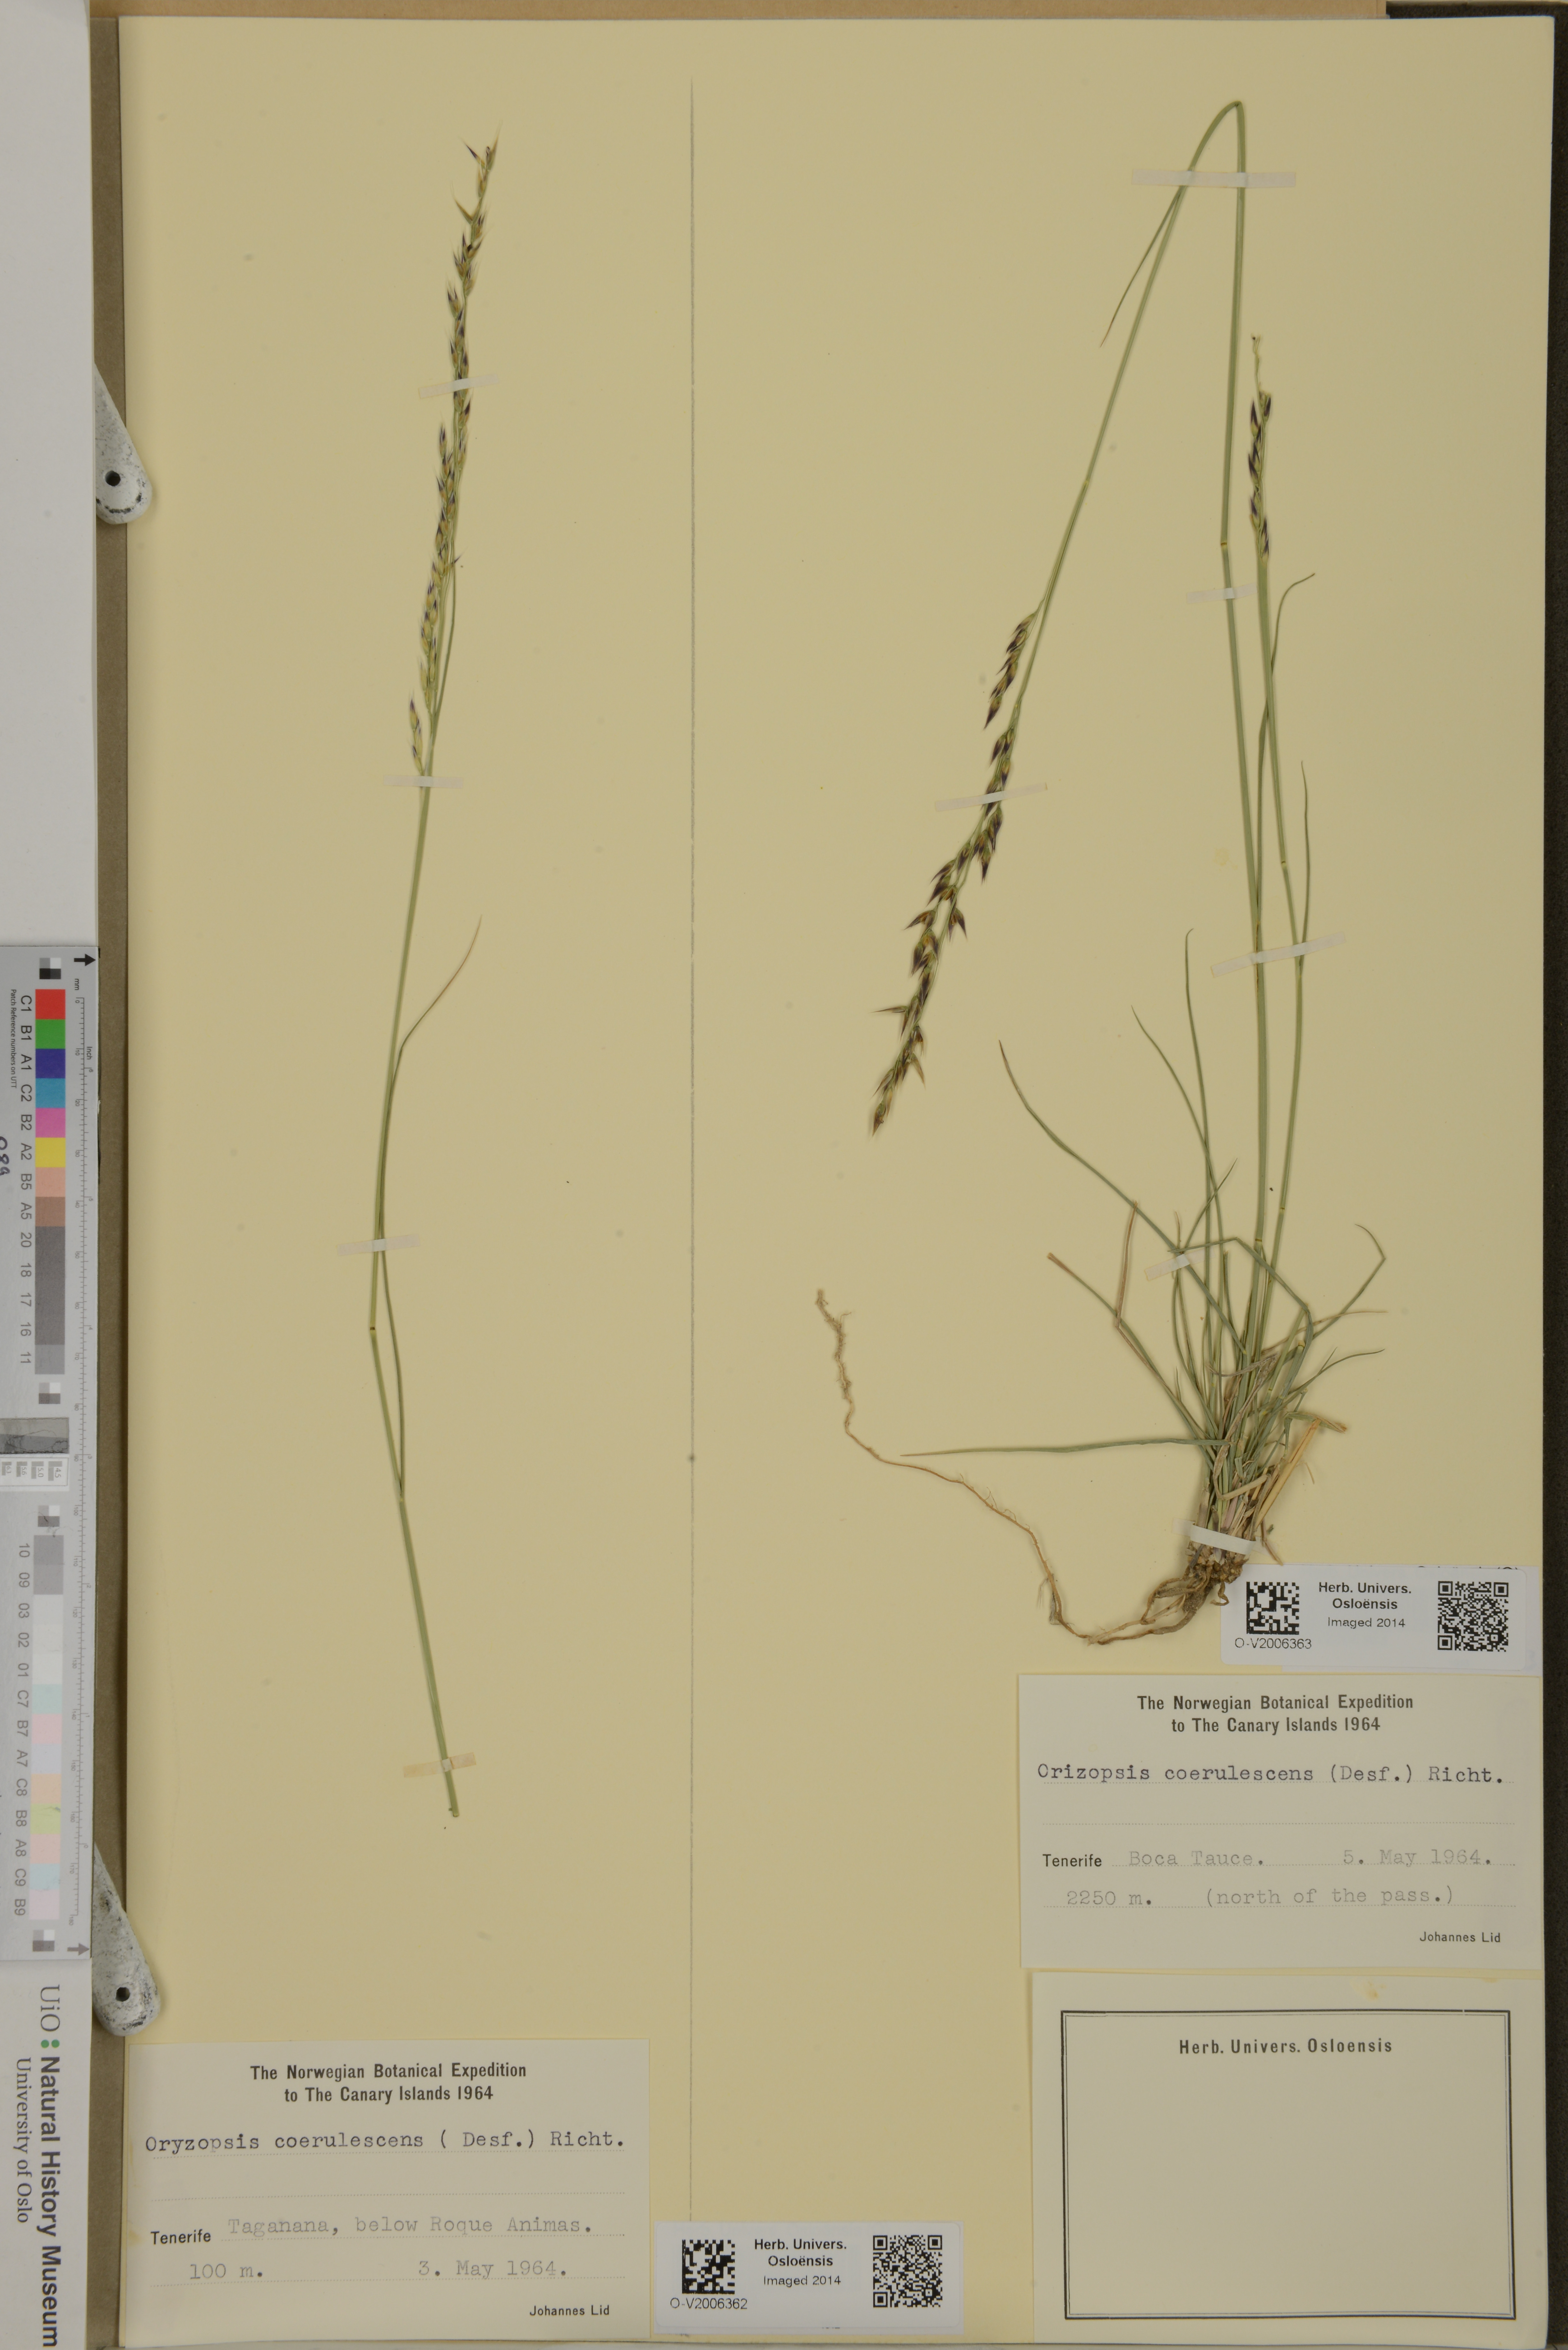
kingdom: Plantae
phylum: Tracheophyta
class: Liliopsida
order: Poales
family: Poaceae
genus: Piptatherum
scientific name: Piptatherum coerulescens
